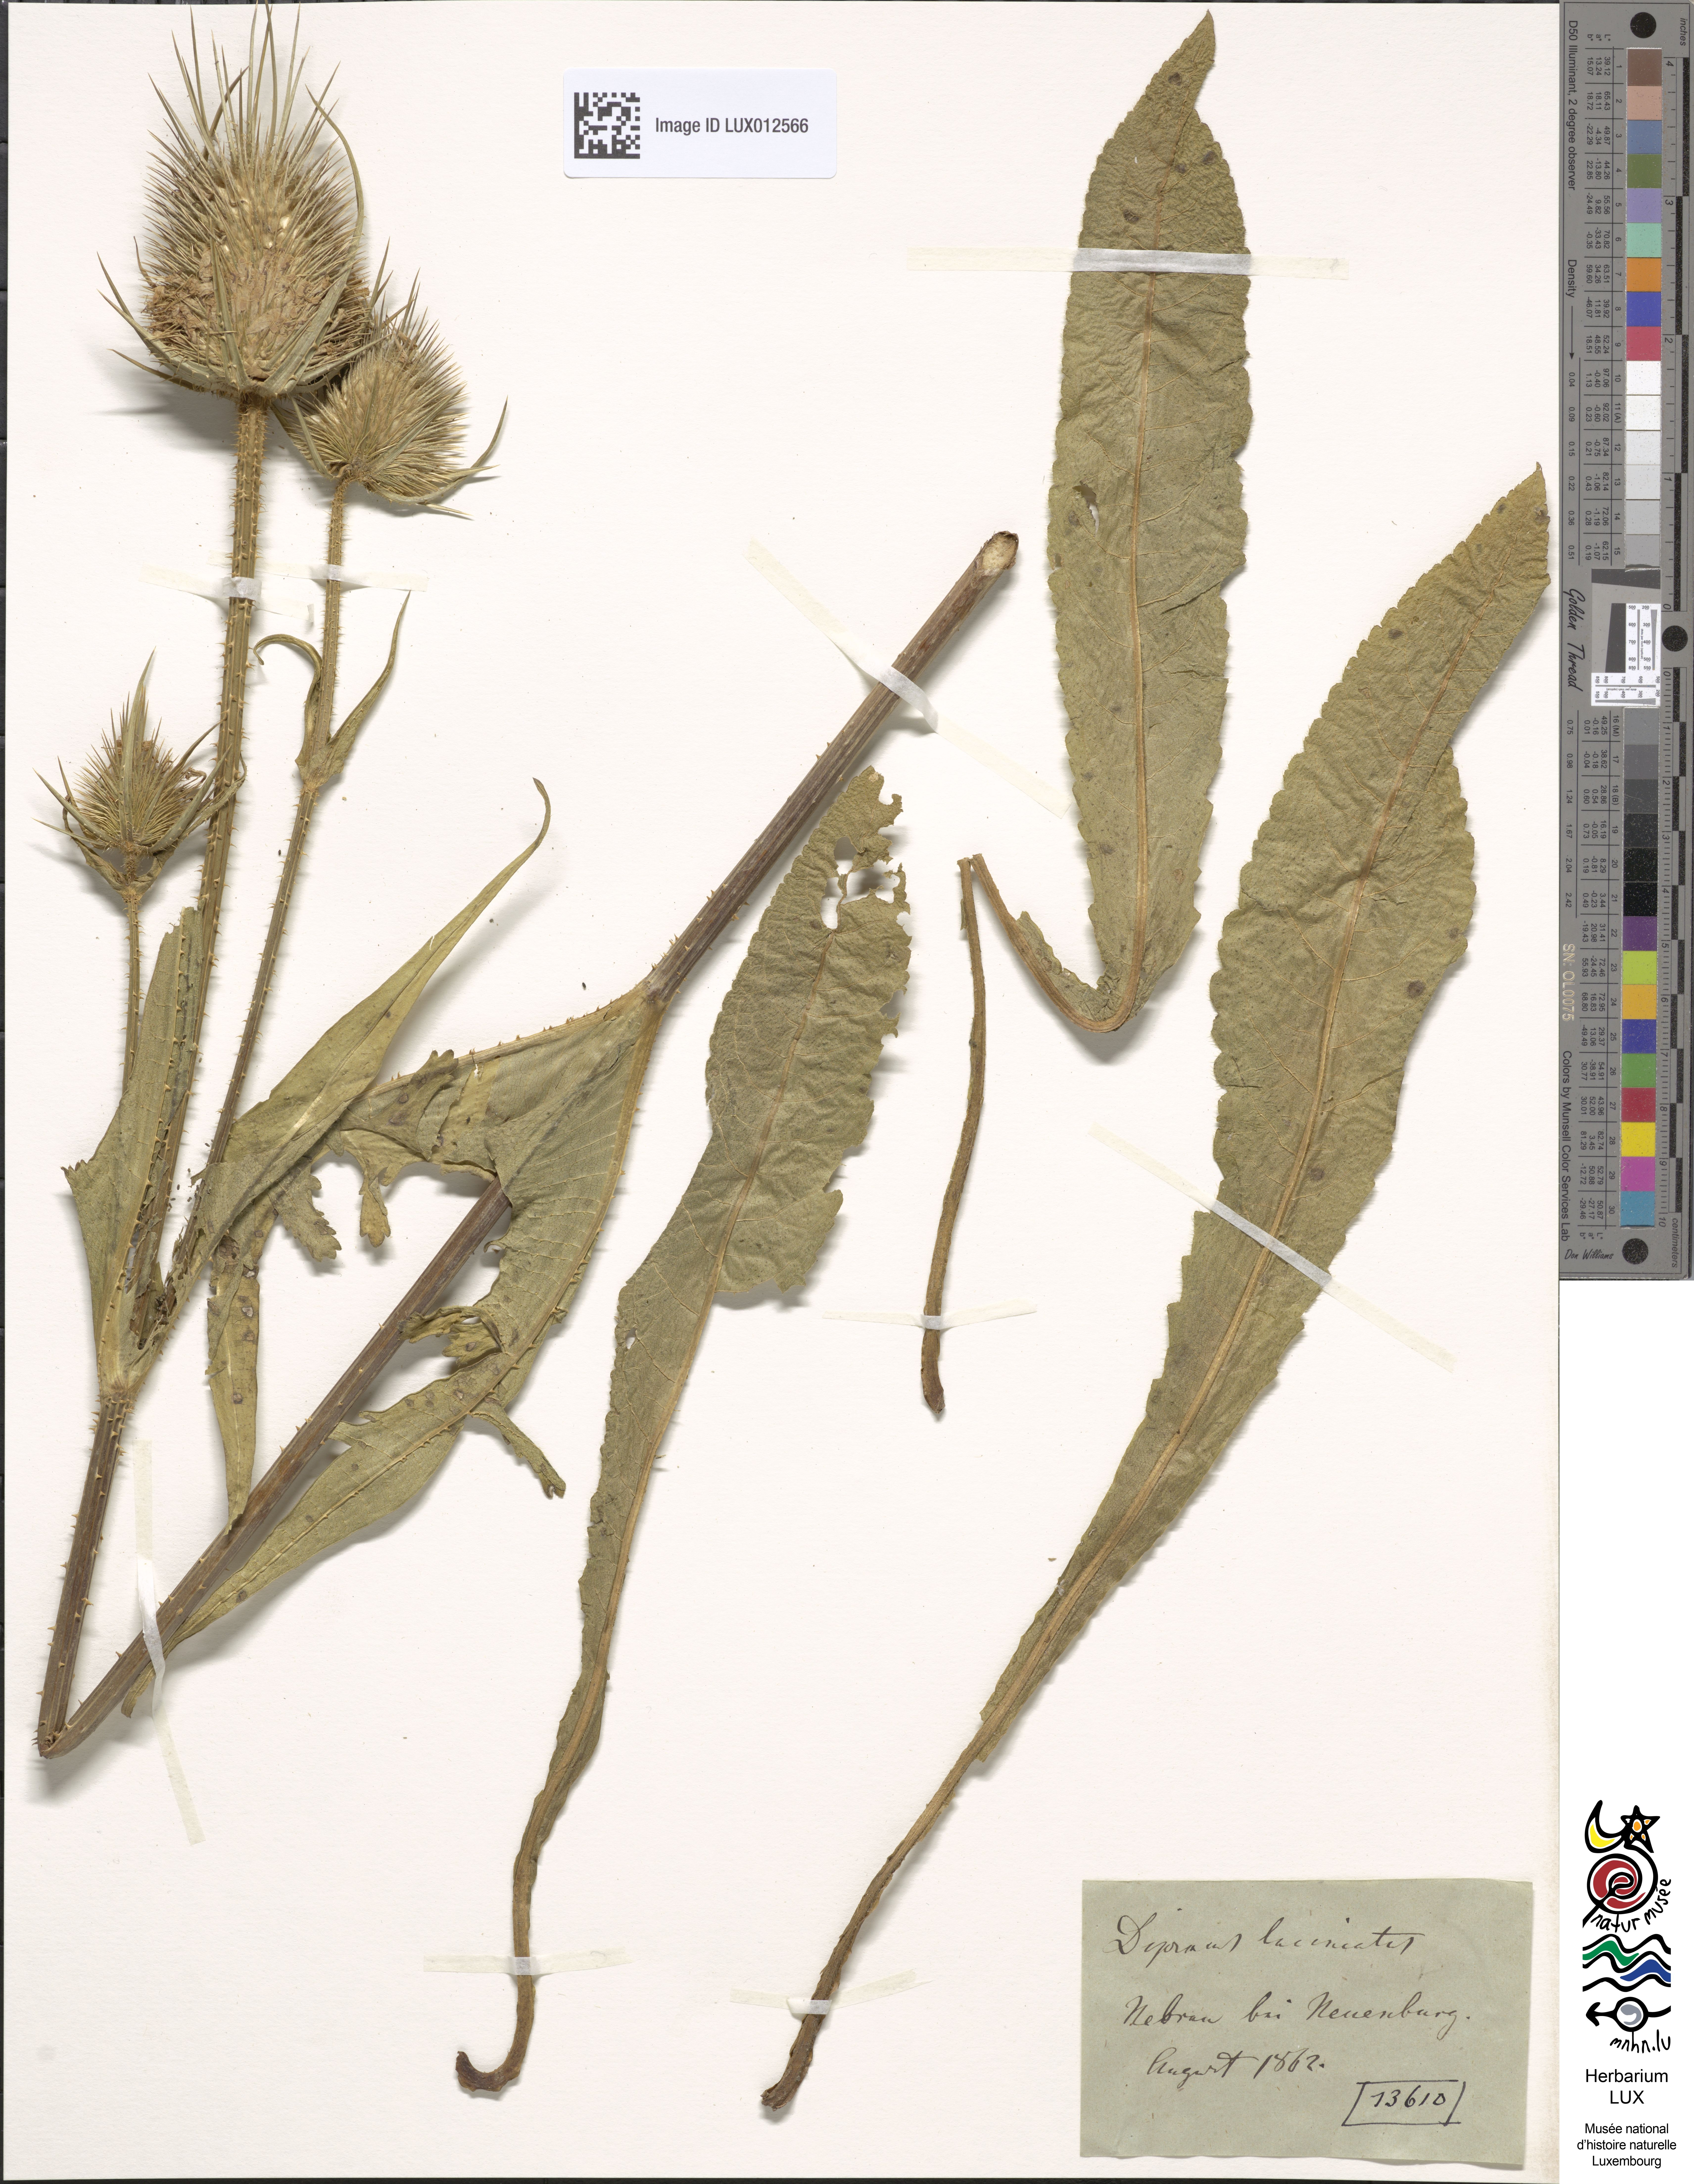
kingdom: Plantae
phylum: Tracheophyta
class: Magnoliopsida
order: Dipsacales
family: Caprifoliaceae
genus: Dipsacus
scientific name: Dipsacus laciniatus
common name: Cut-leaved teasel
